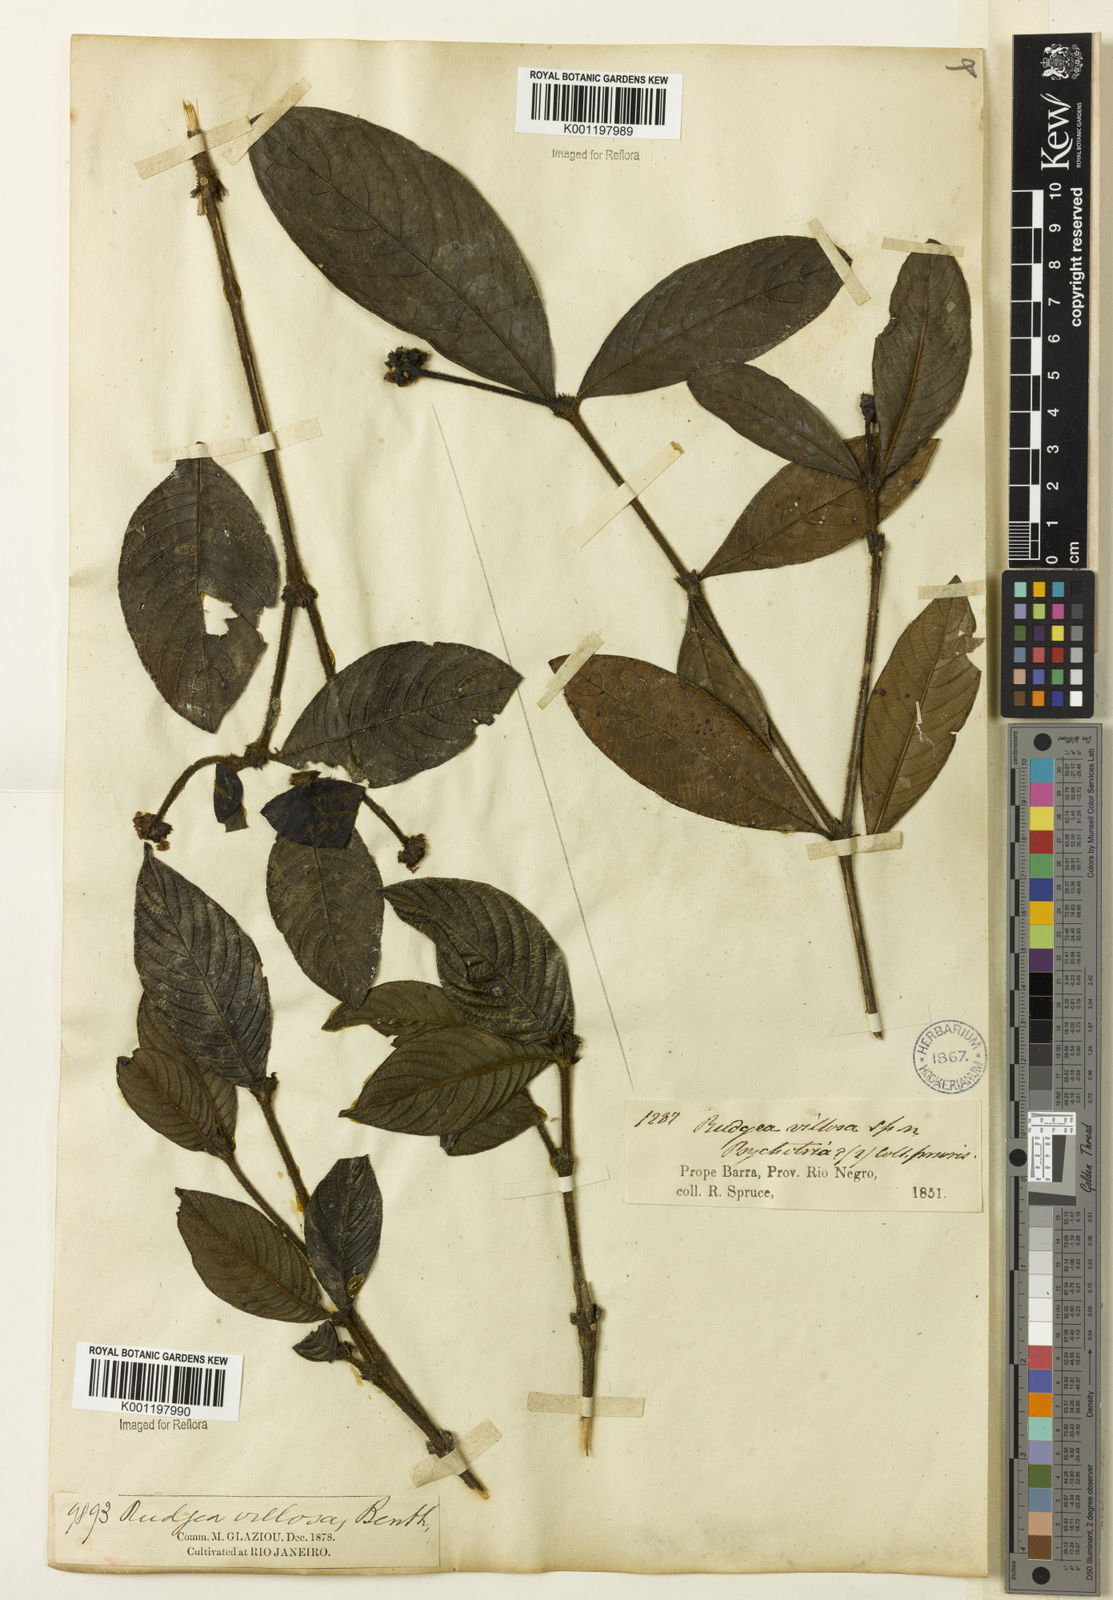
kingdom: Plantae
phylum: Tracheophyta
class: Magnoliopsida
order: Gentianales
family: Rubiaceae
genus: Psychotria
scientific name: Psychotria sphaerocarpa
